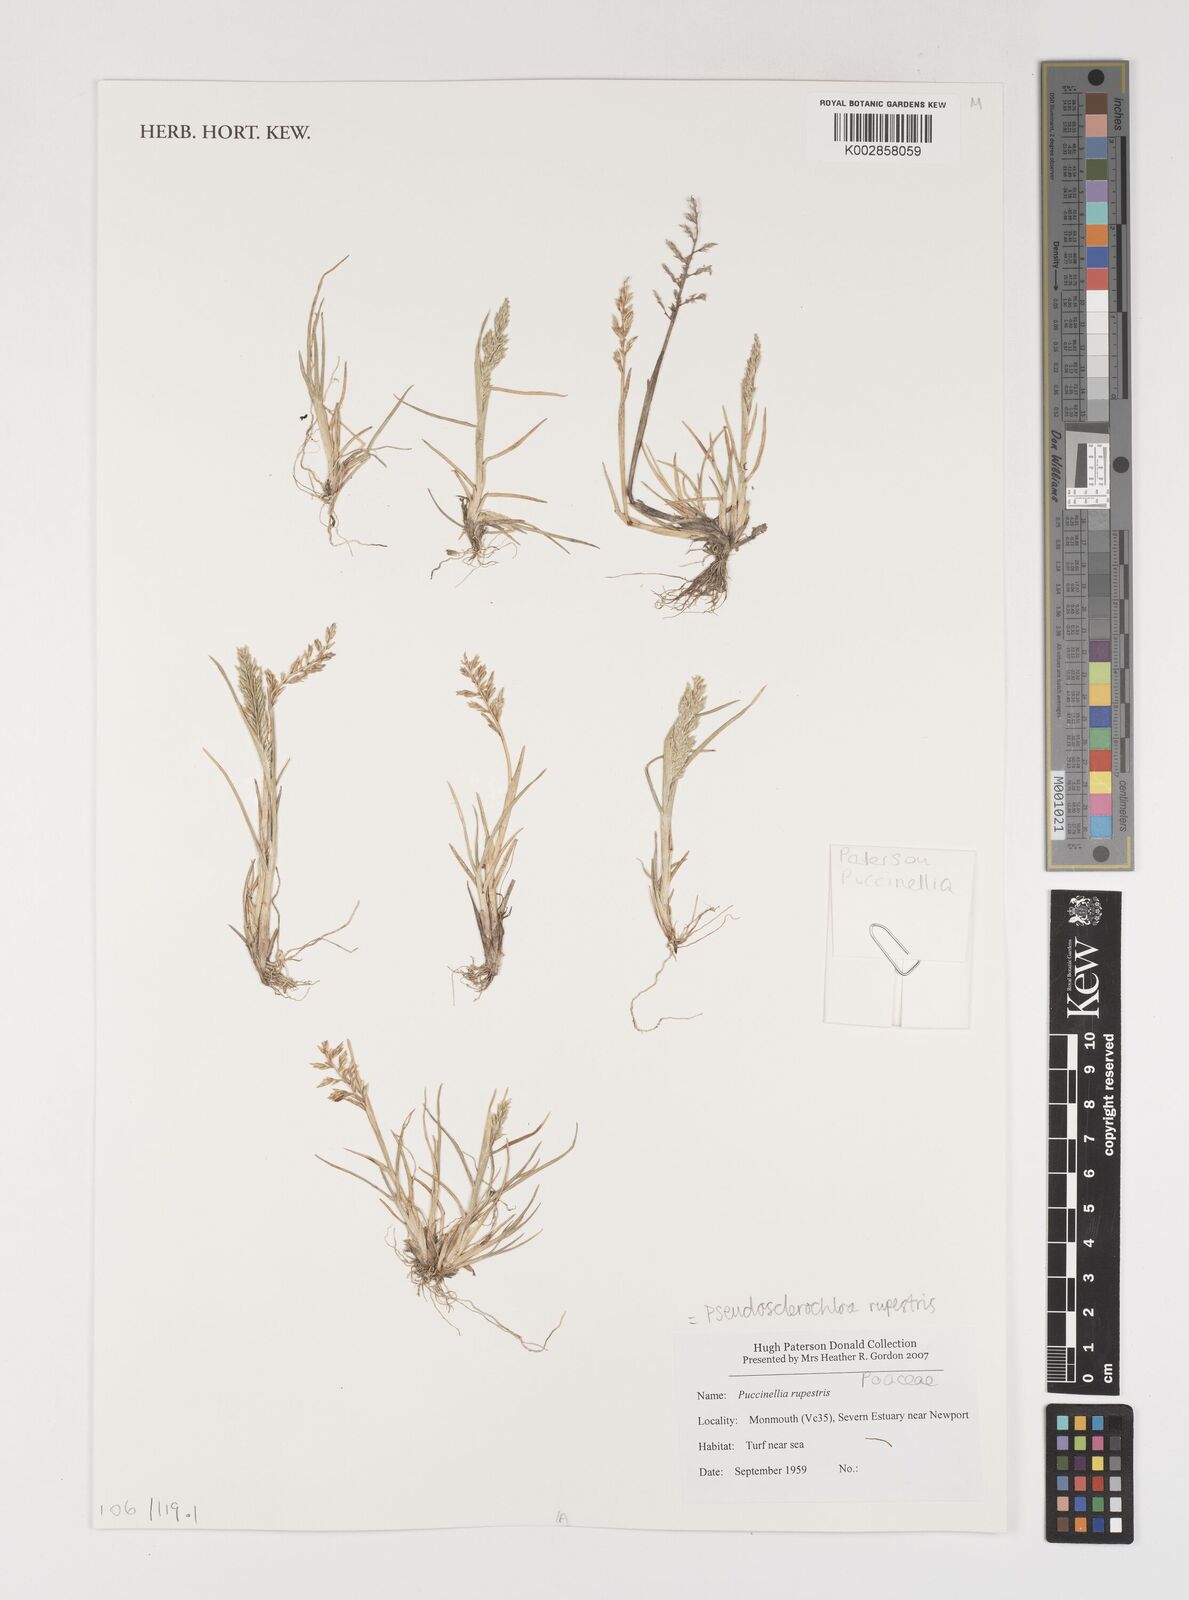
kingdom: Plantae
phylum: Tracheophyta
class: Liliopsida
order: Poales
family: Poaceae
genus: Puccinellia
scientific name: Puccinellia rupestris
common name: Stiff saltmarsh-grass
